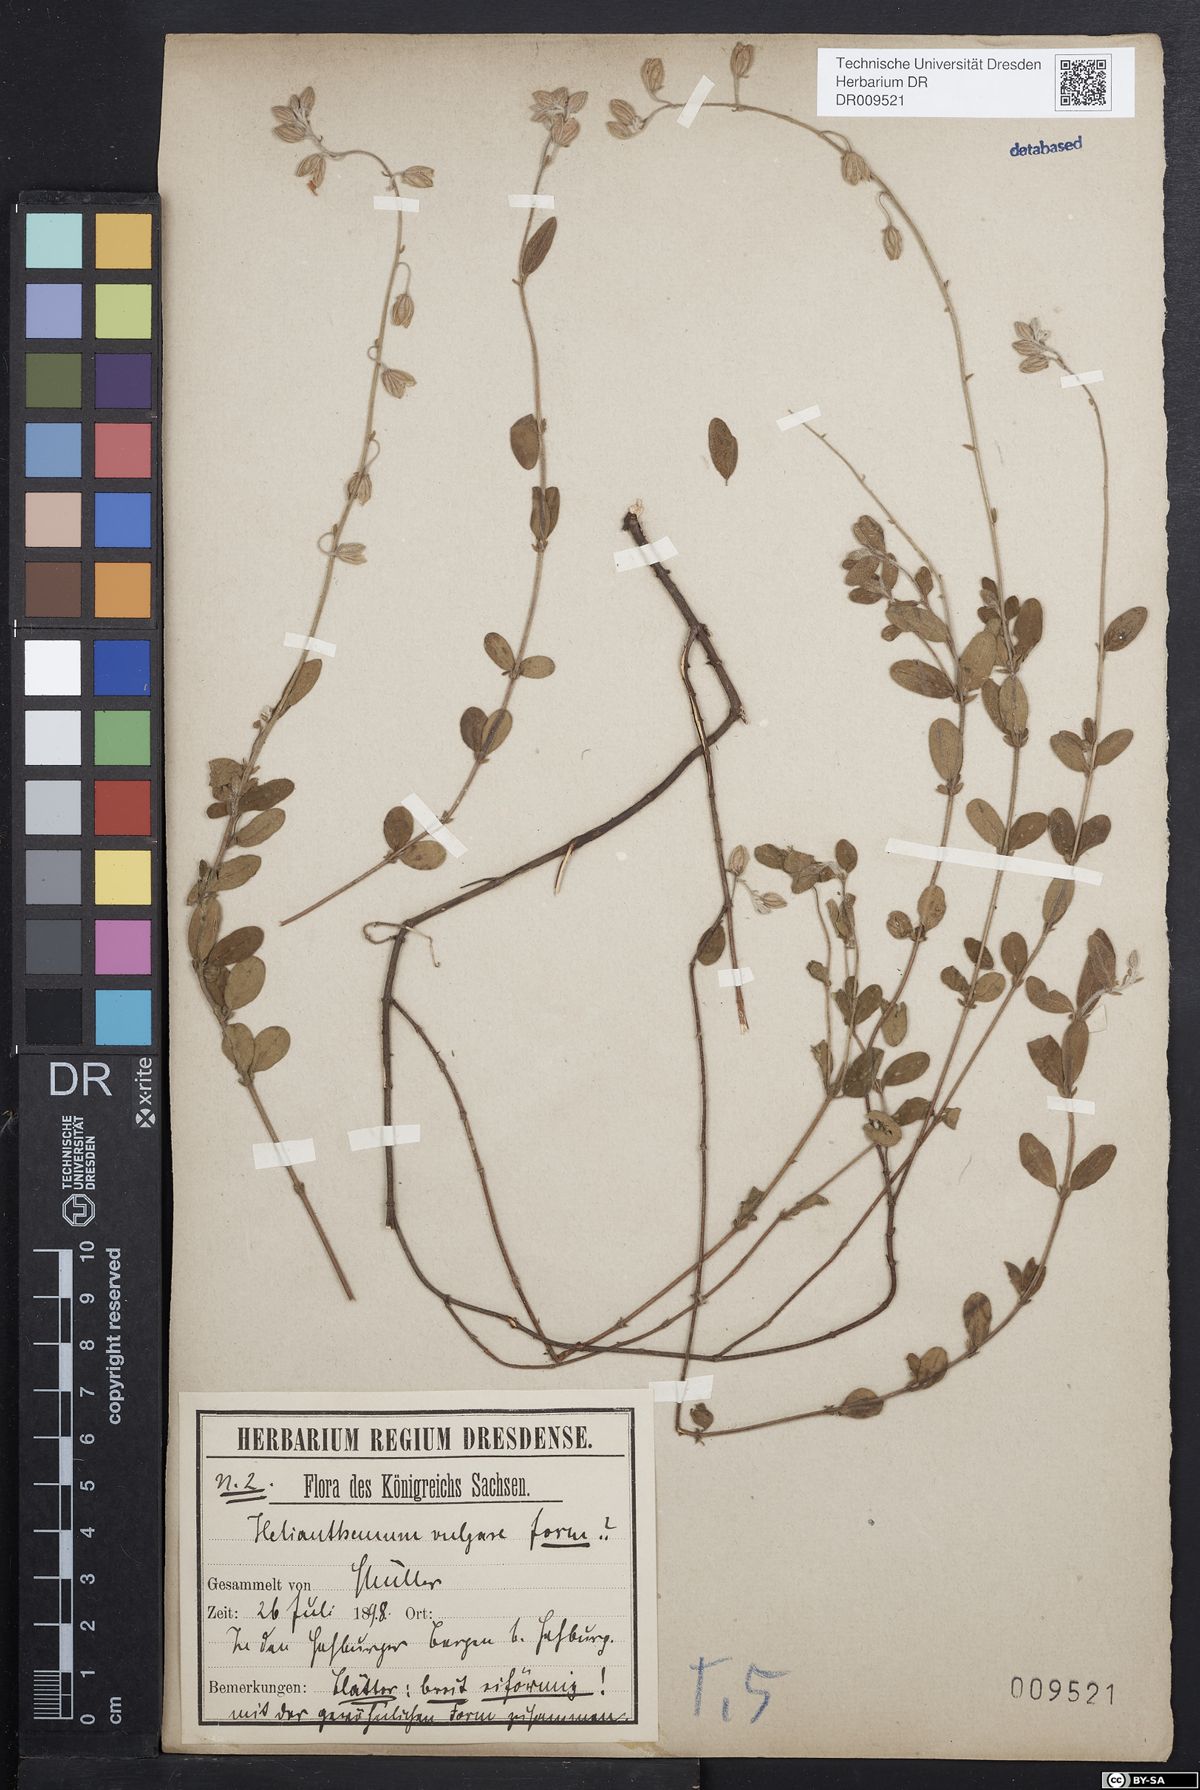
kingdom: Plantae
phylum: Tracheophyta
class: Magnoliopsida
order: Malvales
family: Cistaceae
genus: Helianthemum
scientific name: Helianthemum nummularium
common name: Common rock-rose
